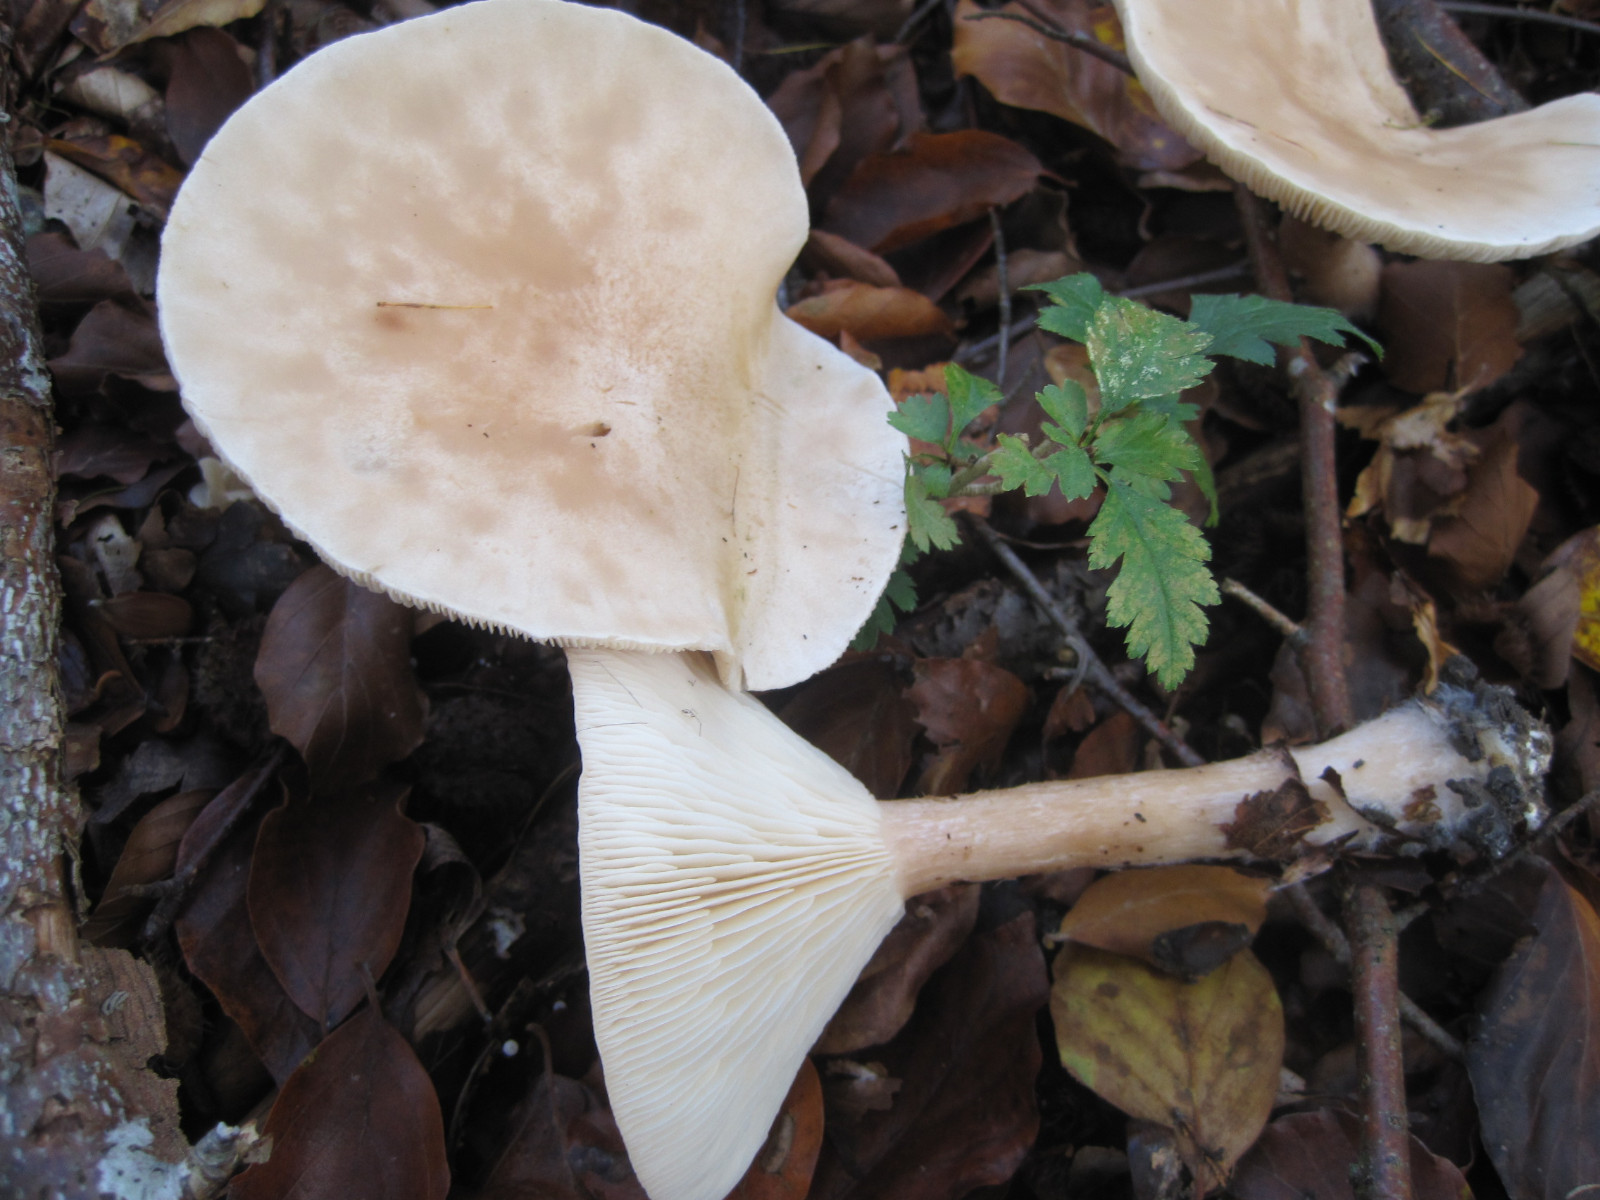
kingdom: Fungi
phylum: Basidiomycota
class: Agaricomycetes
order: Agaricales
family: Tricholomataceae
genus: Infundibulicybe
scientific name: Infundibulicybe geotropa
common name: stor tragthat
